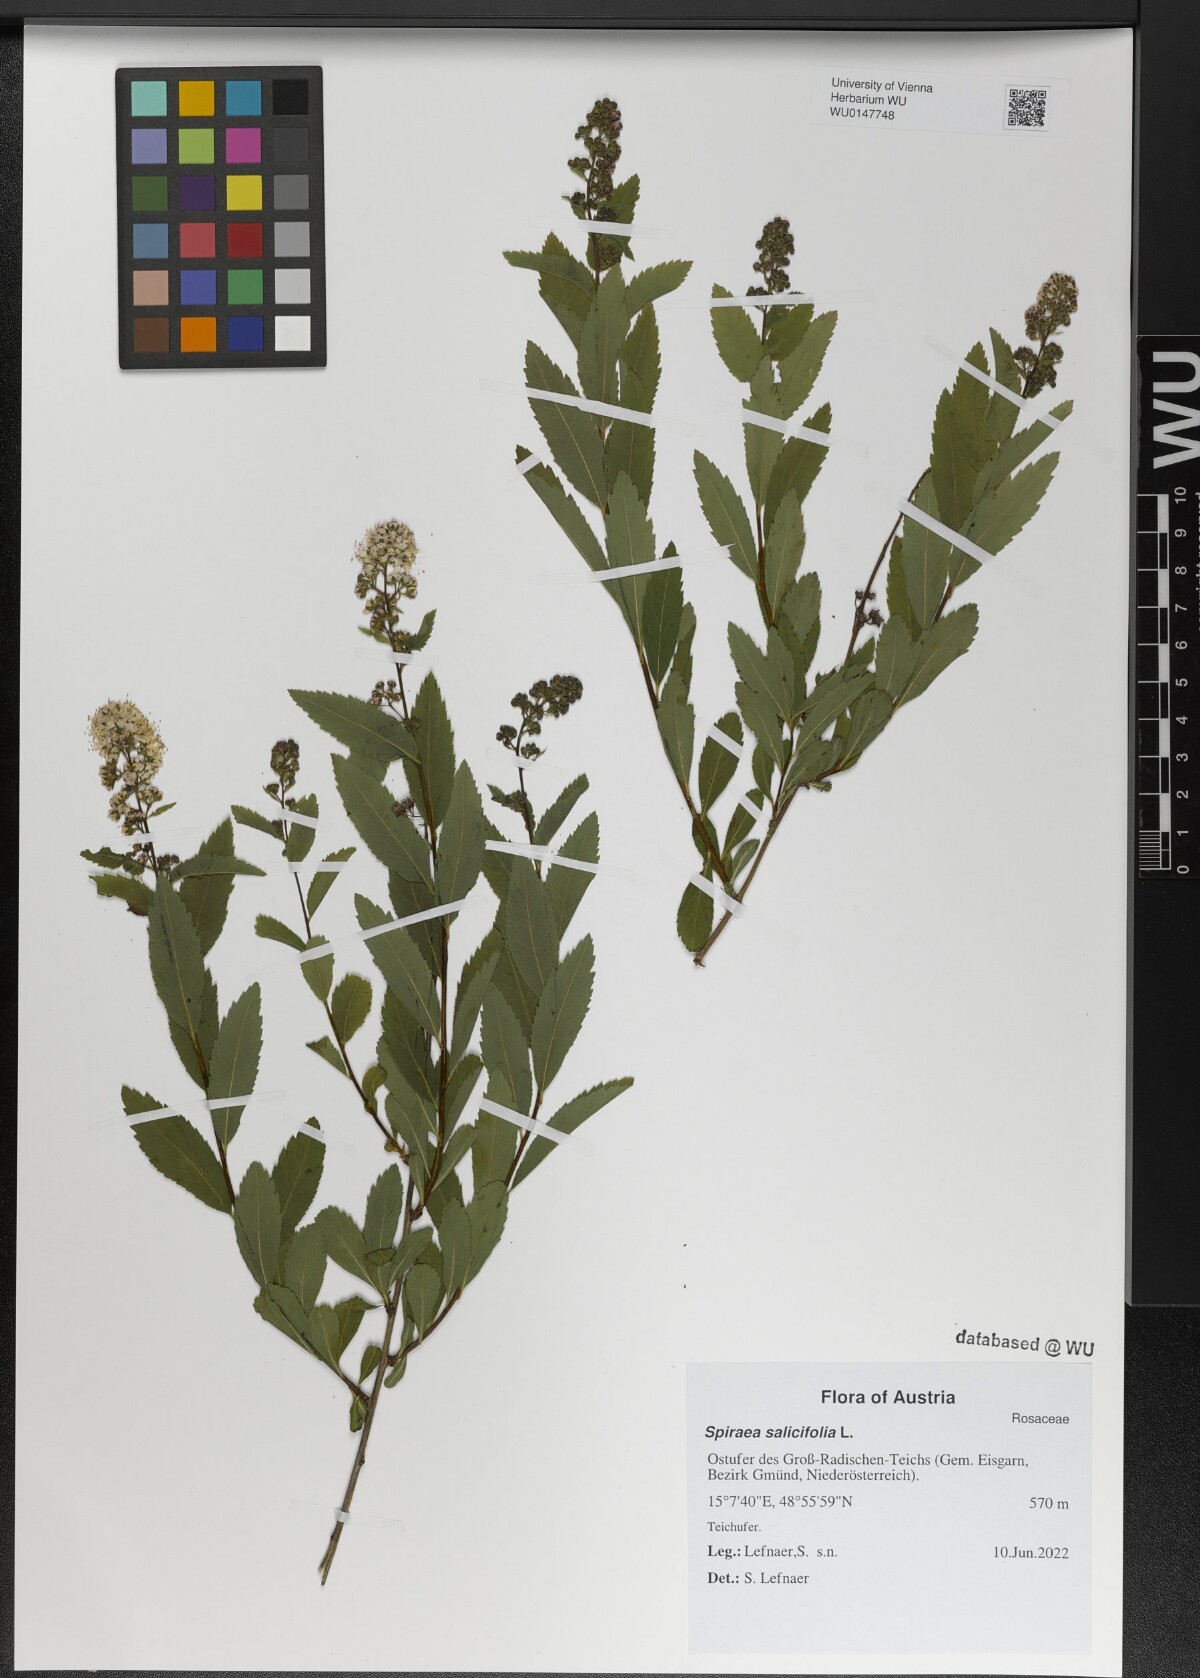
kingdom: Plantae
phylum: Tracheophyta
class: Magnoliopsida
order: Rosales
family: Rosaceae
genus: Spiraea
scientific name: Spiraea salicifolia
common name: Bridewort
